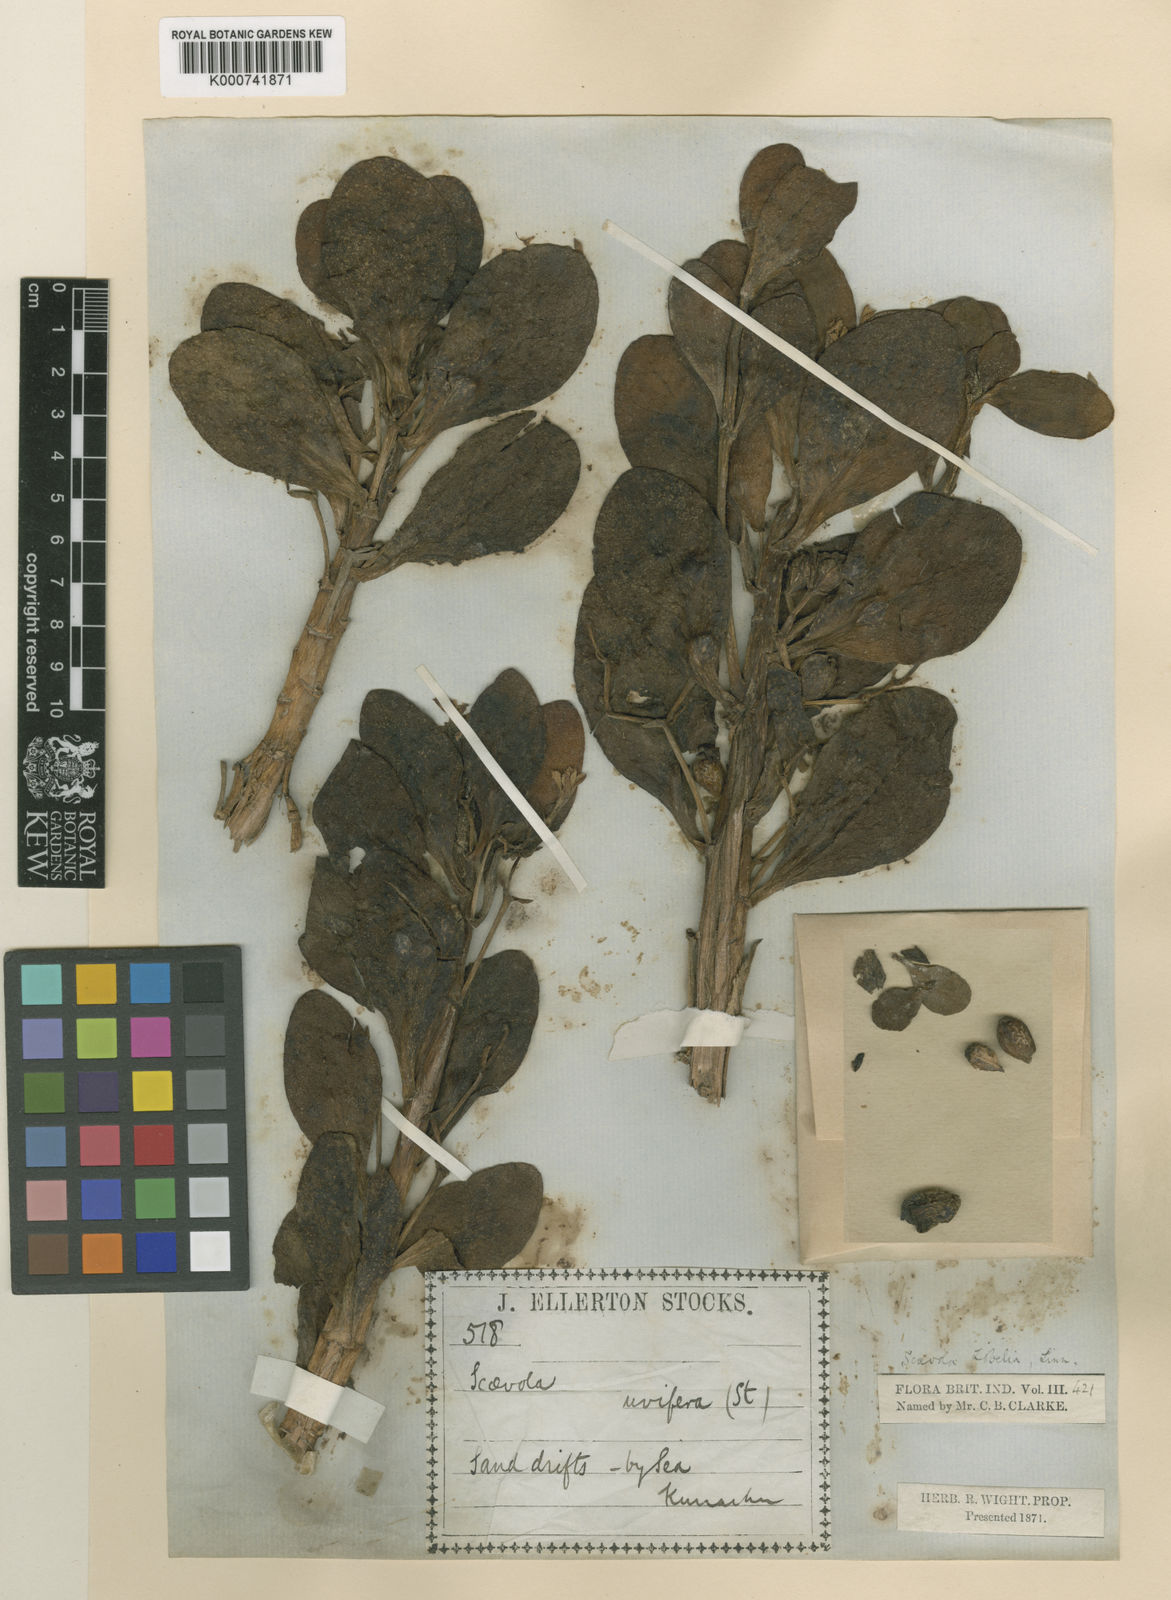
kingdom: Plantae
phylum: Tracheophyta
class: Magnoliopsida
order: Asterales
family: Goodeniaceae
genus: Scaevola
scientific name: Scaevola plumieri
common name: Gull feed
